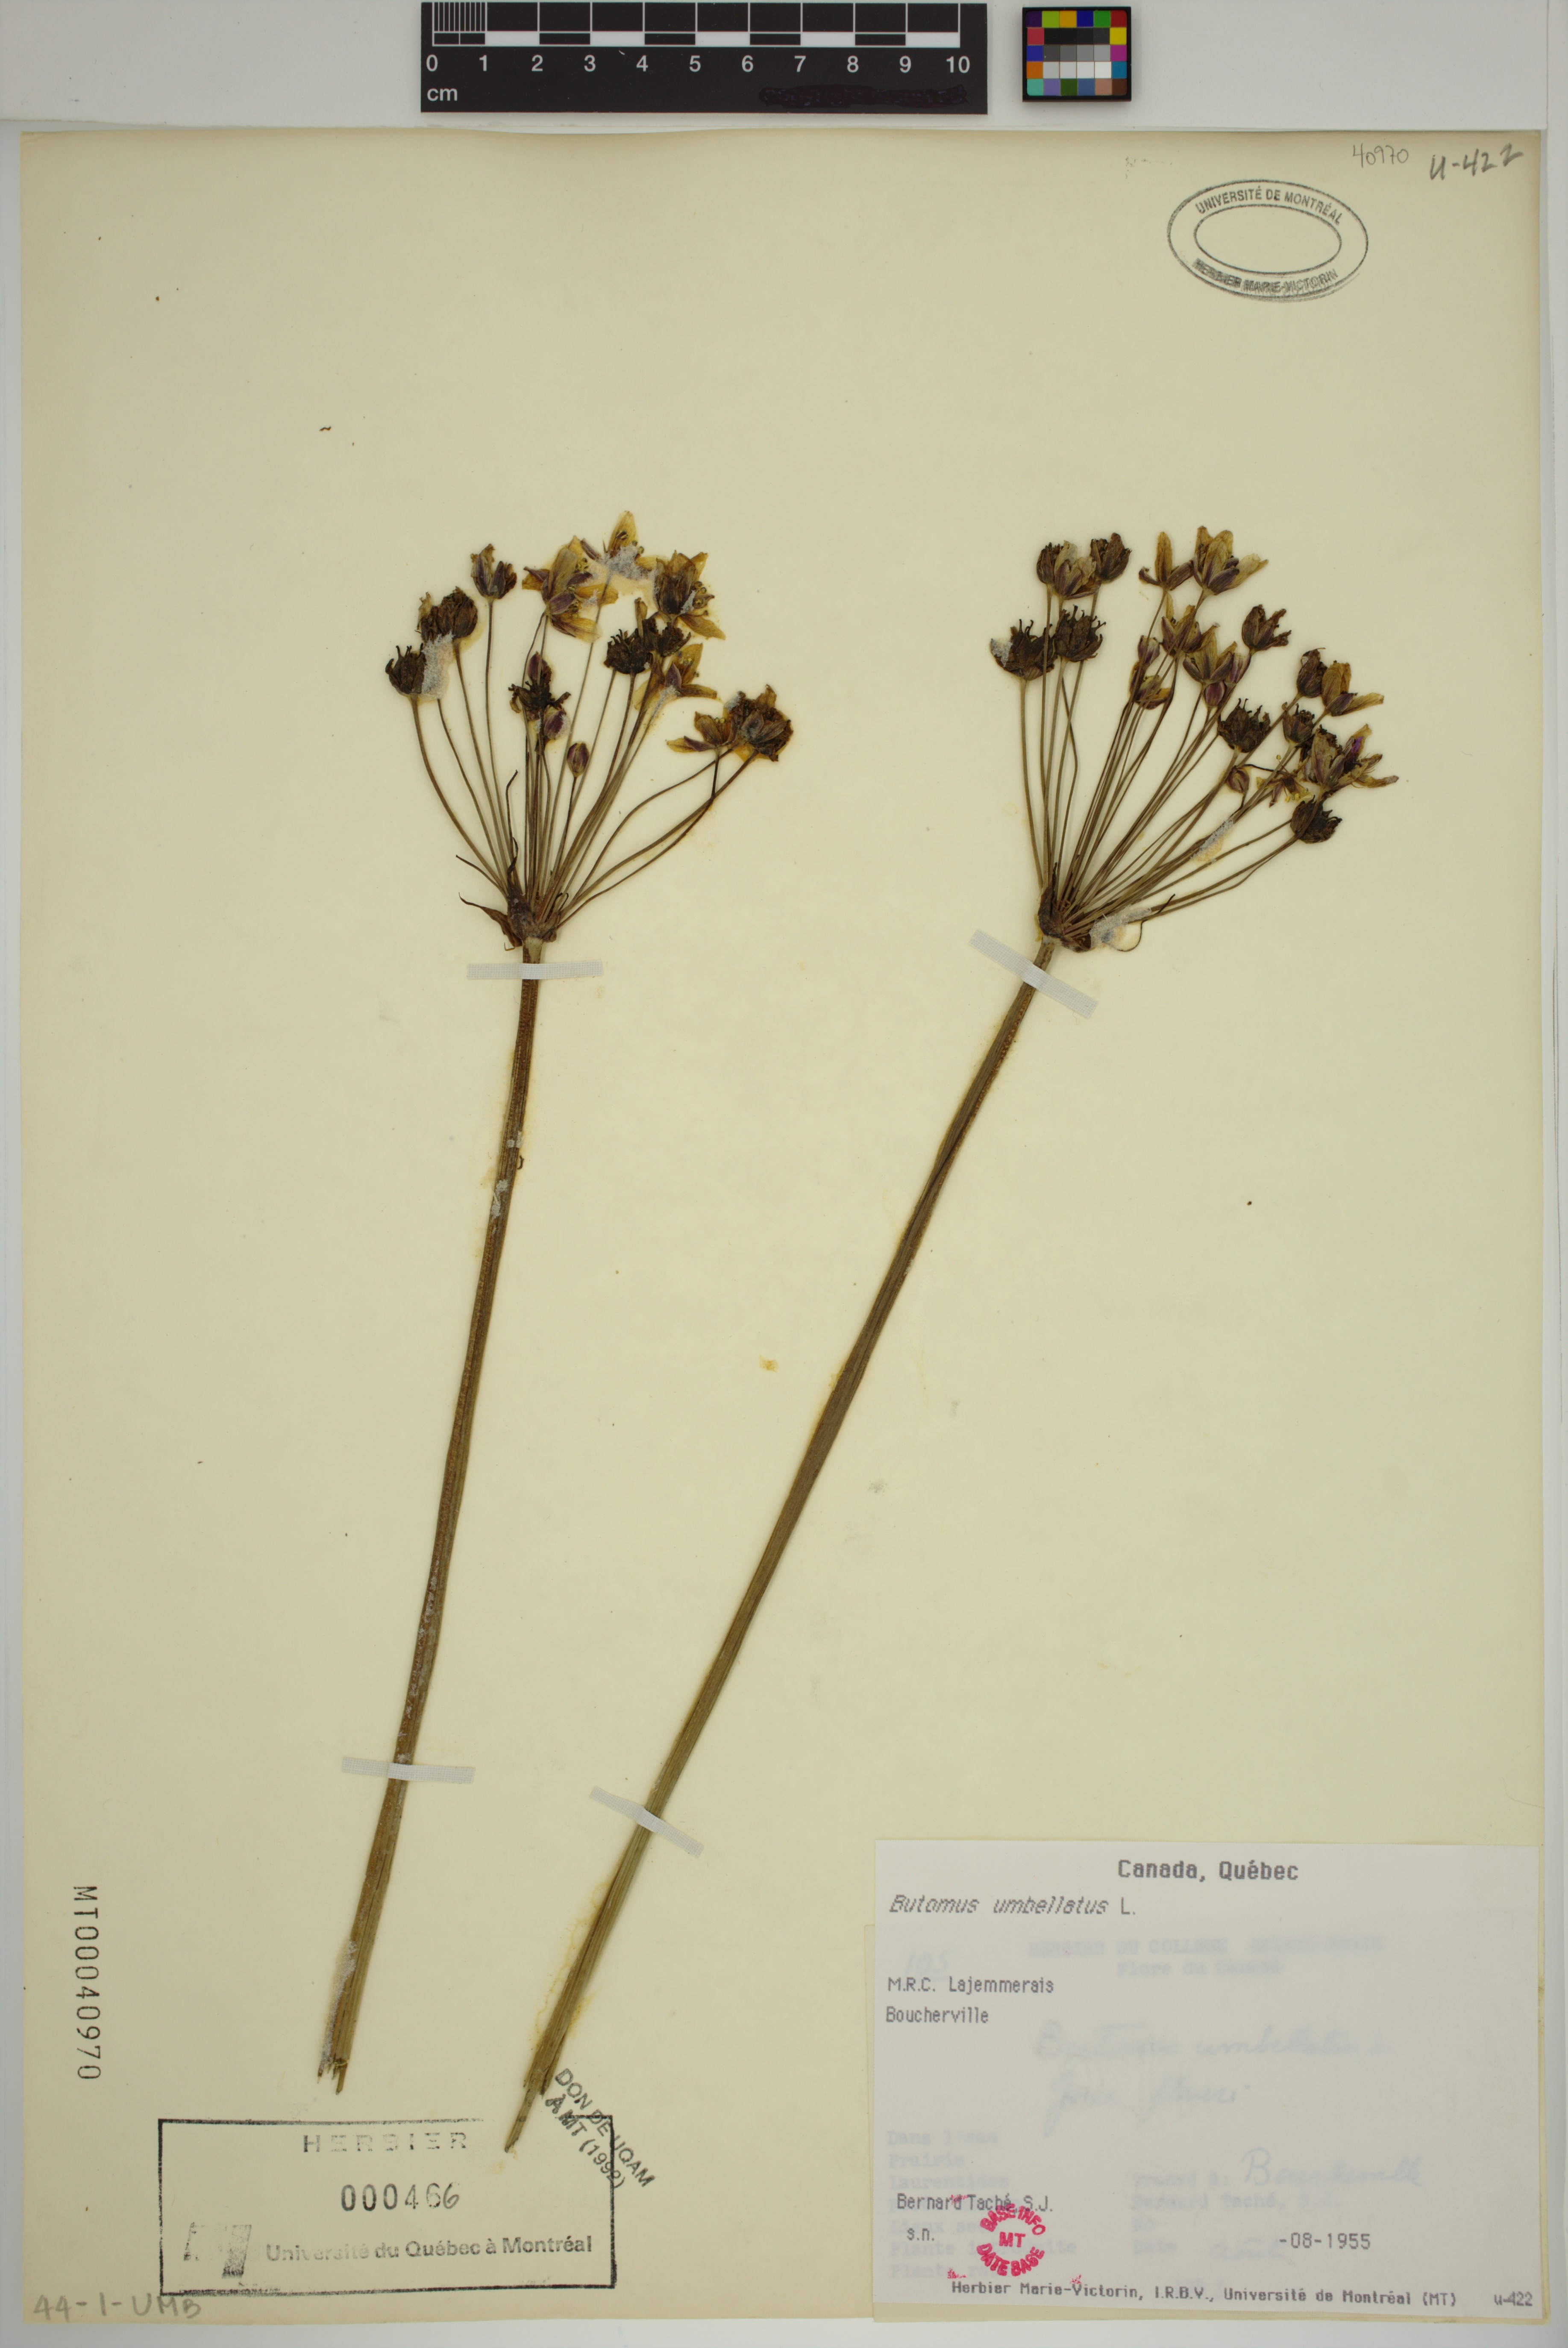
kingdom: Plantae
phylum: Tracheophyta
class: Liliopsida
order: Alismatales
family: Butomaceae
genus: Butomus
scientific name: Butomus umbellatus
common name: Flowering-rush
